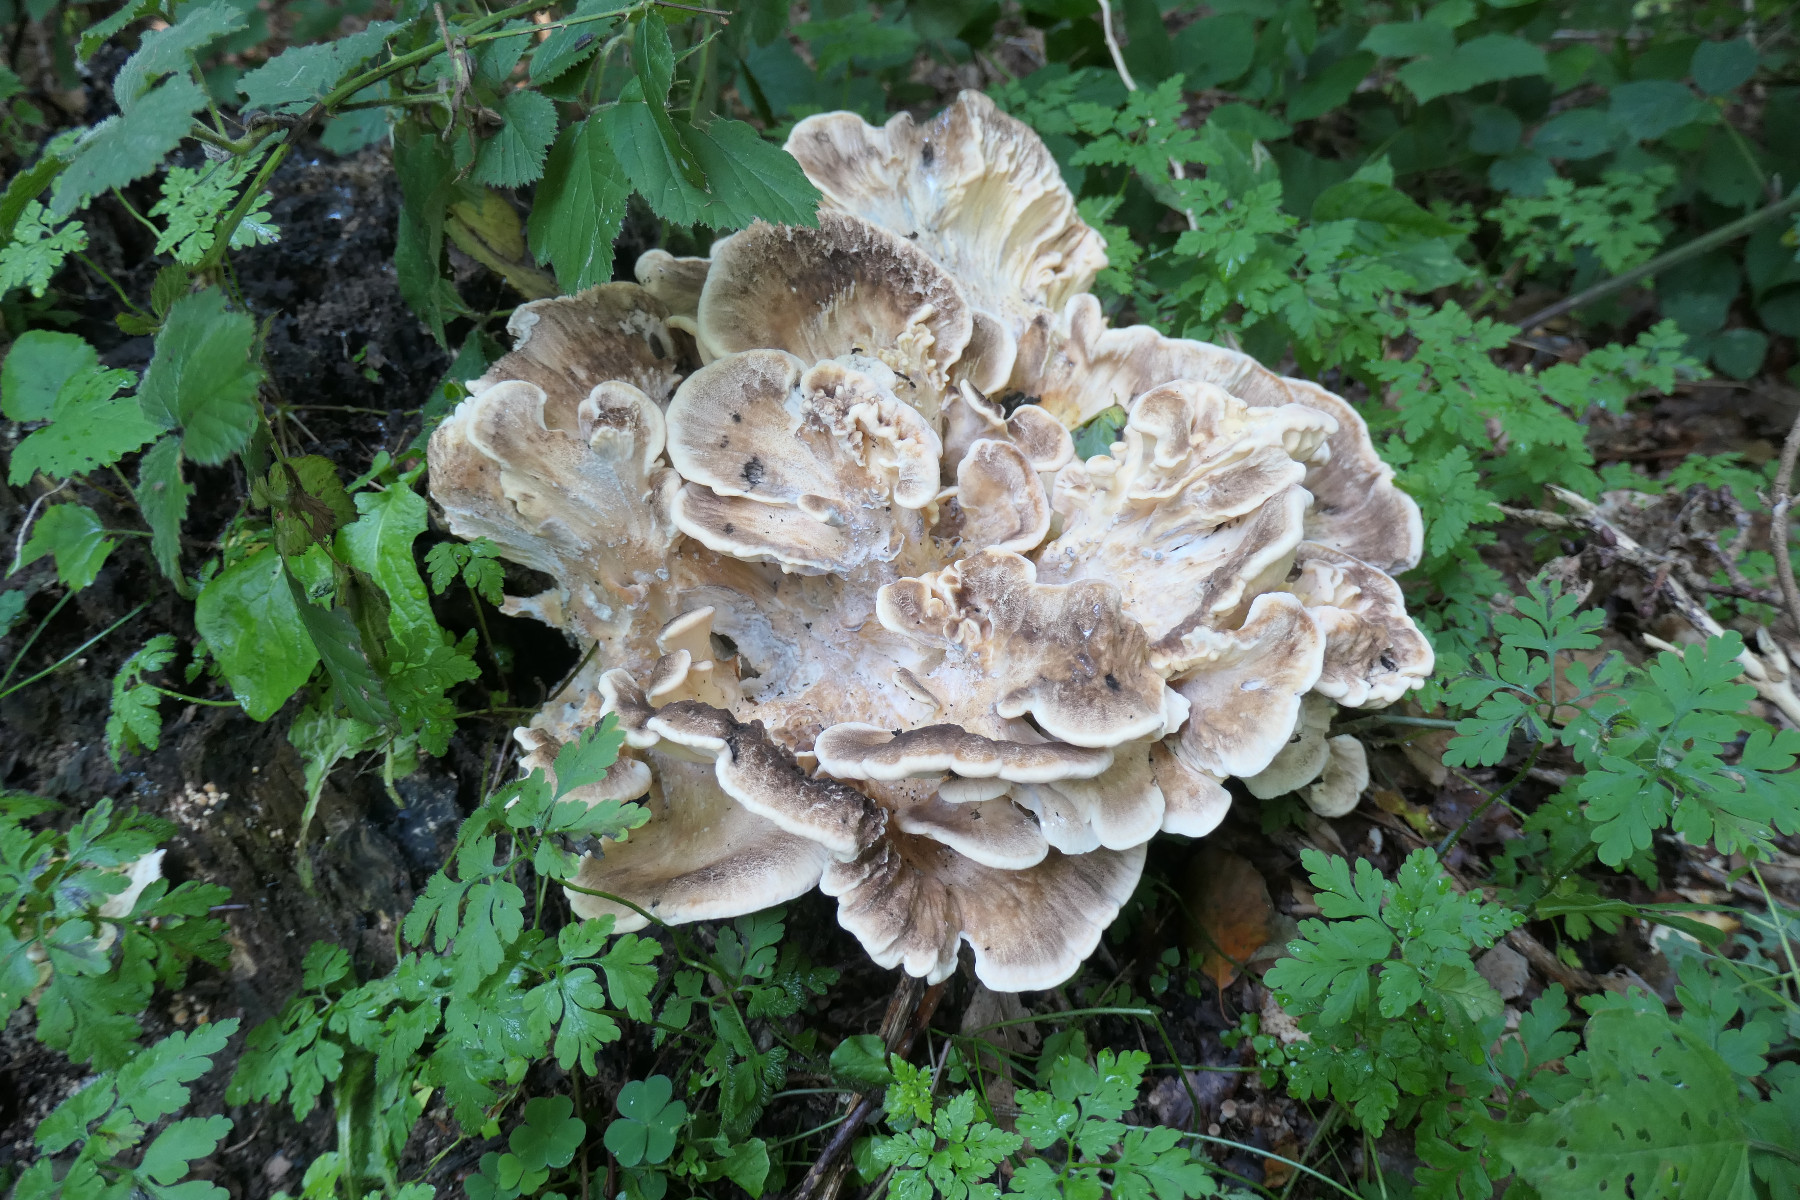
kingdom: Fungi
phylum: Basidiomycota
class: Agaricomycetes
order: Polyporales
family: Meripilaceae
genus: Meripilus
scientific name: Meripilus giganteus
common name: kæmpeporesvamp
